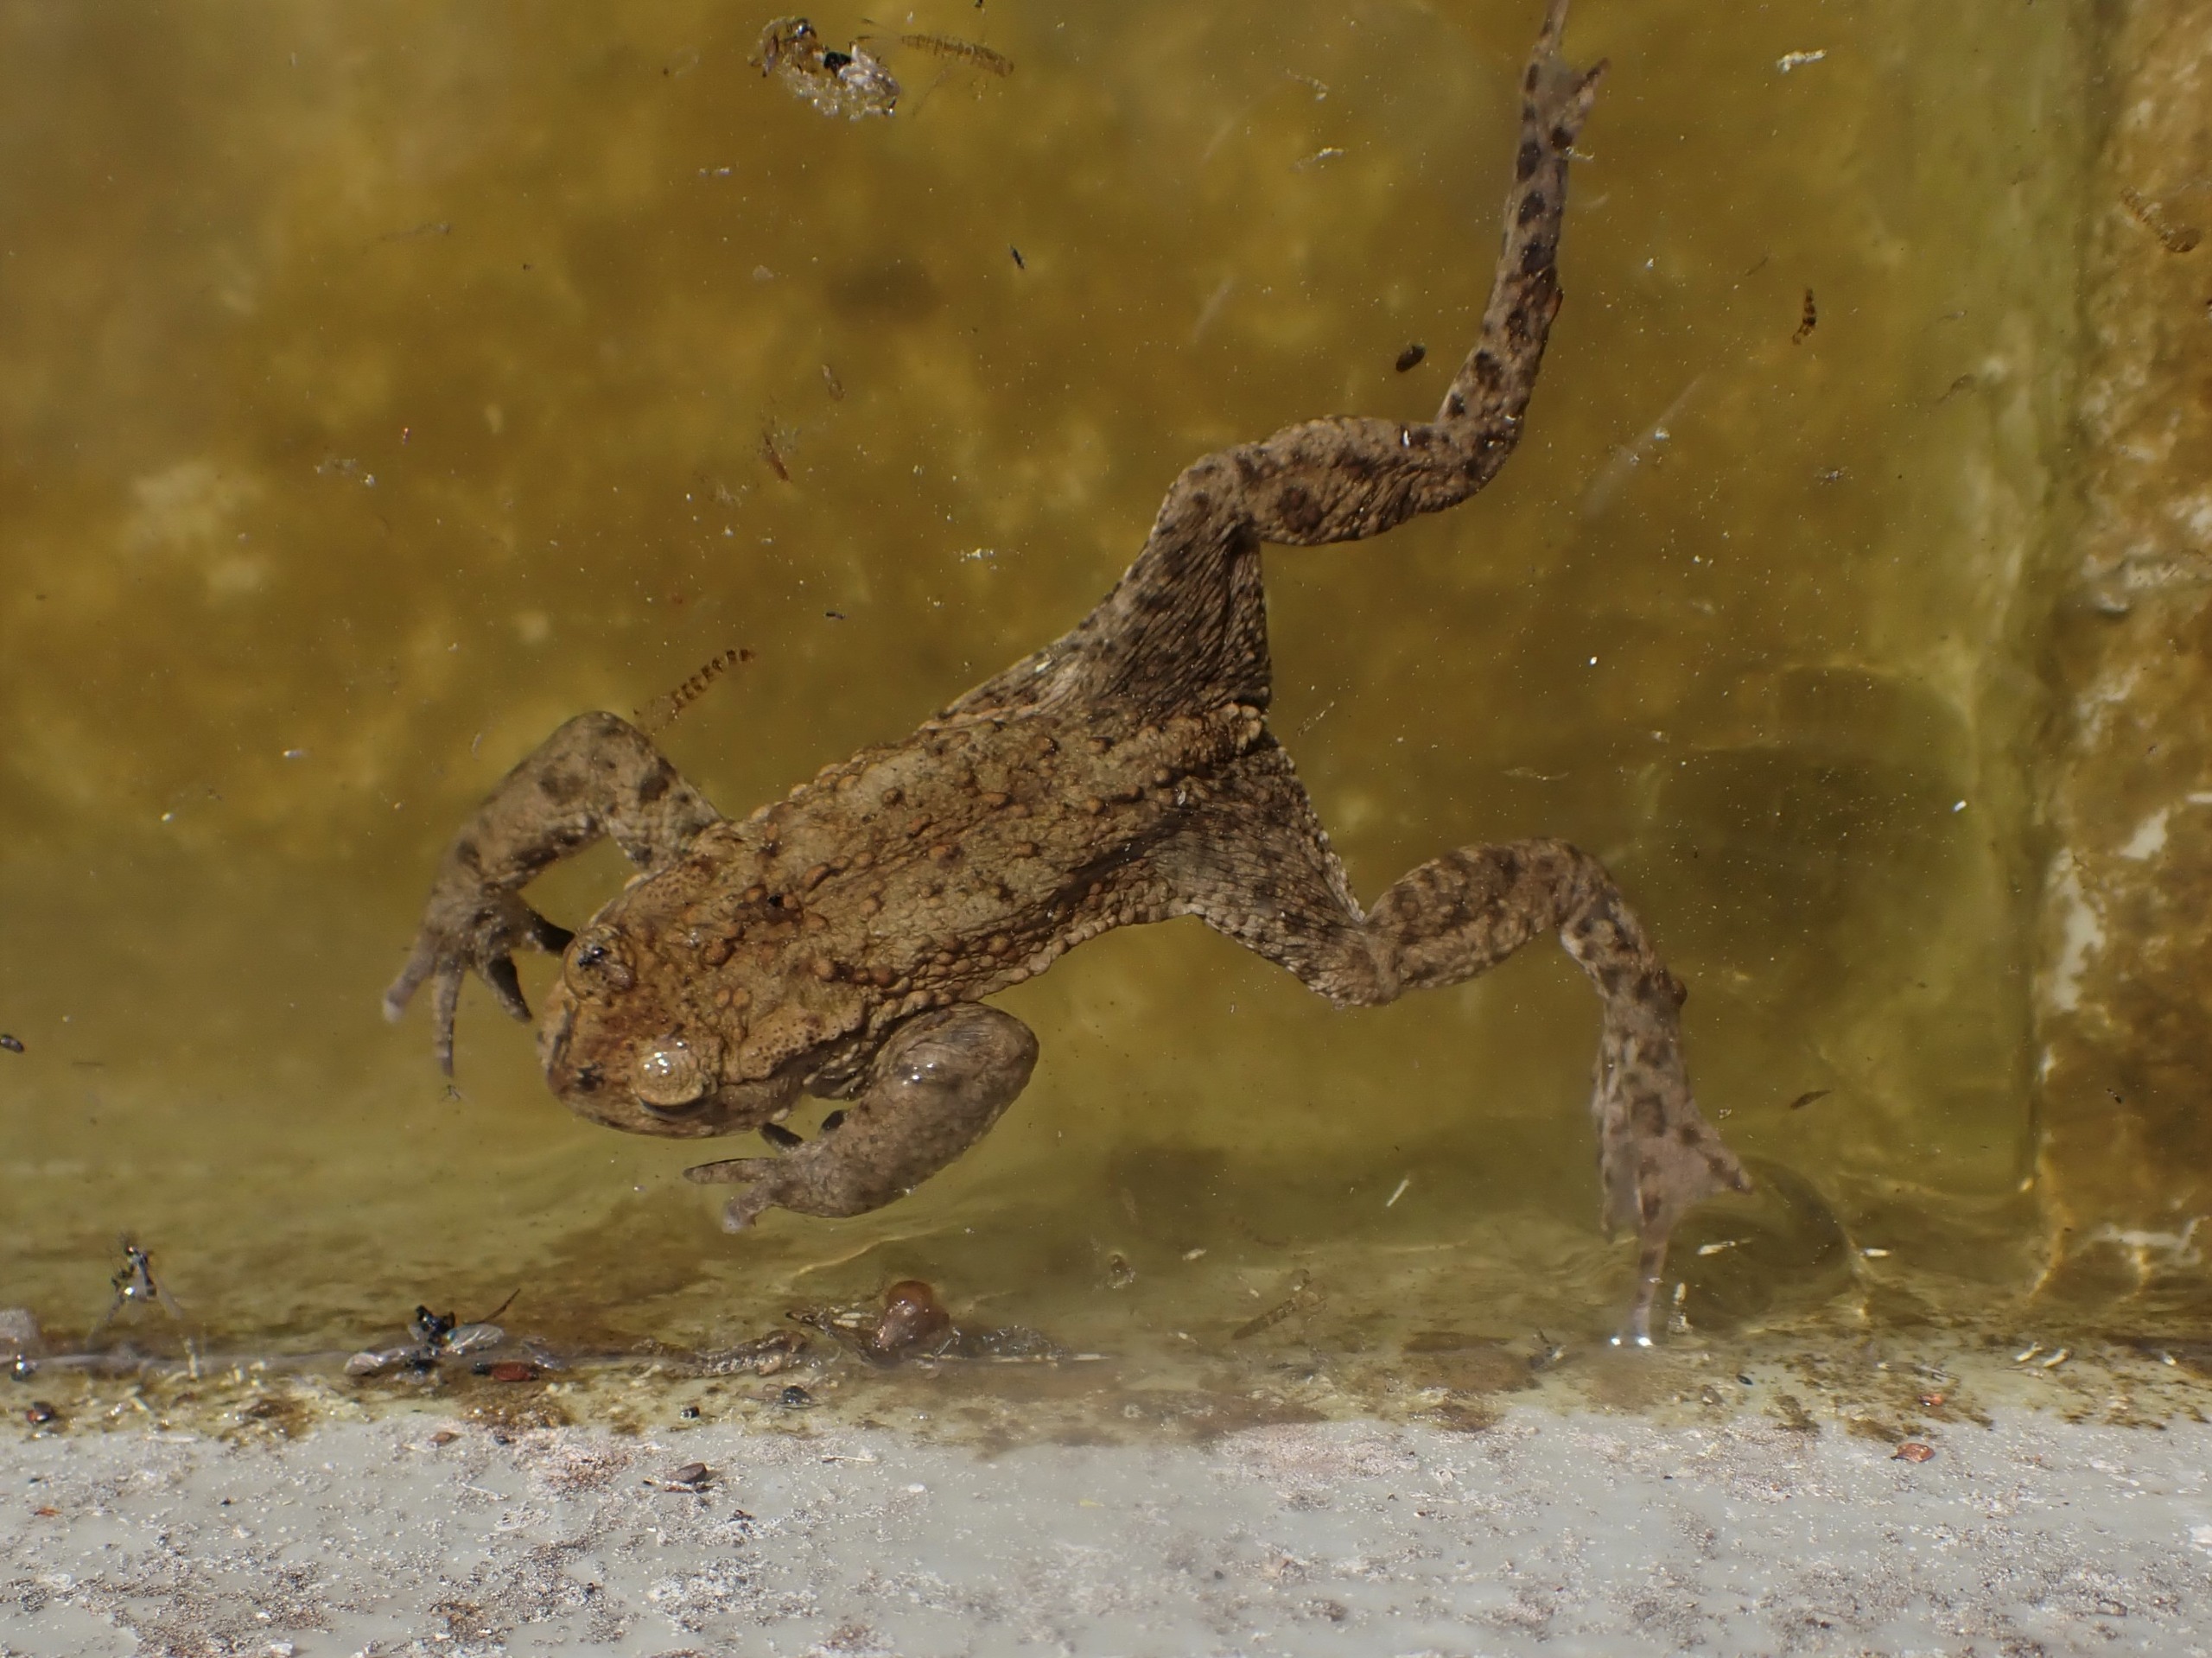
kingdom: Animalia
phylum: Chordata
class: Amphibia
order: Anura
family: Bufonidae
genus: Bufo
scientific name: Bufo bufo
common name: Skrubtudse
